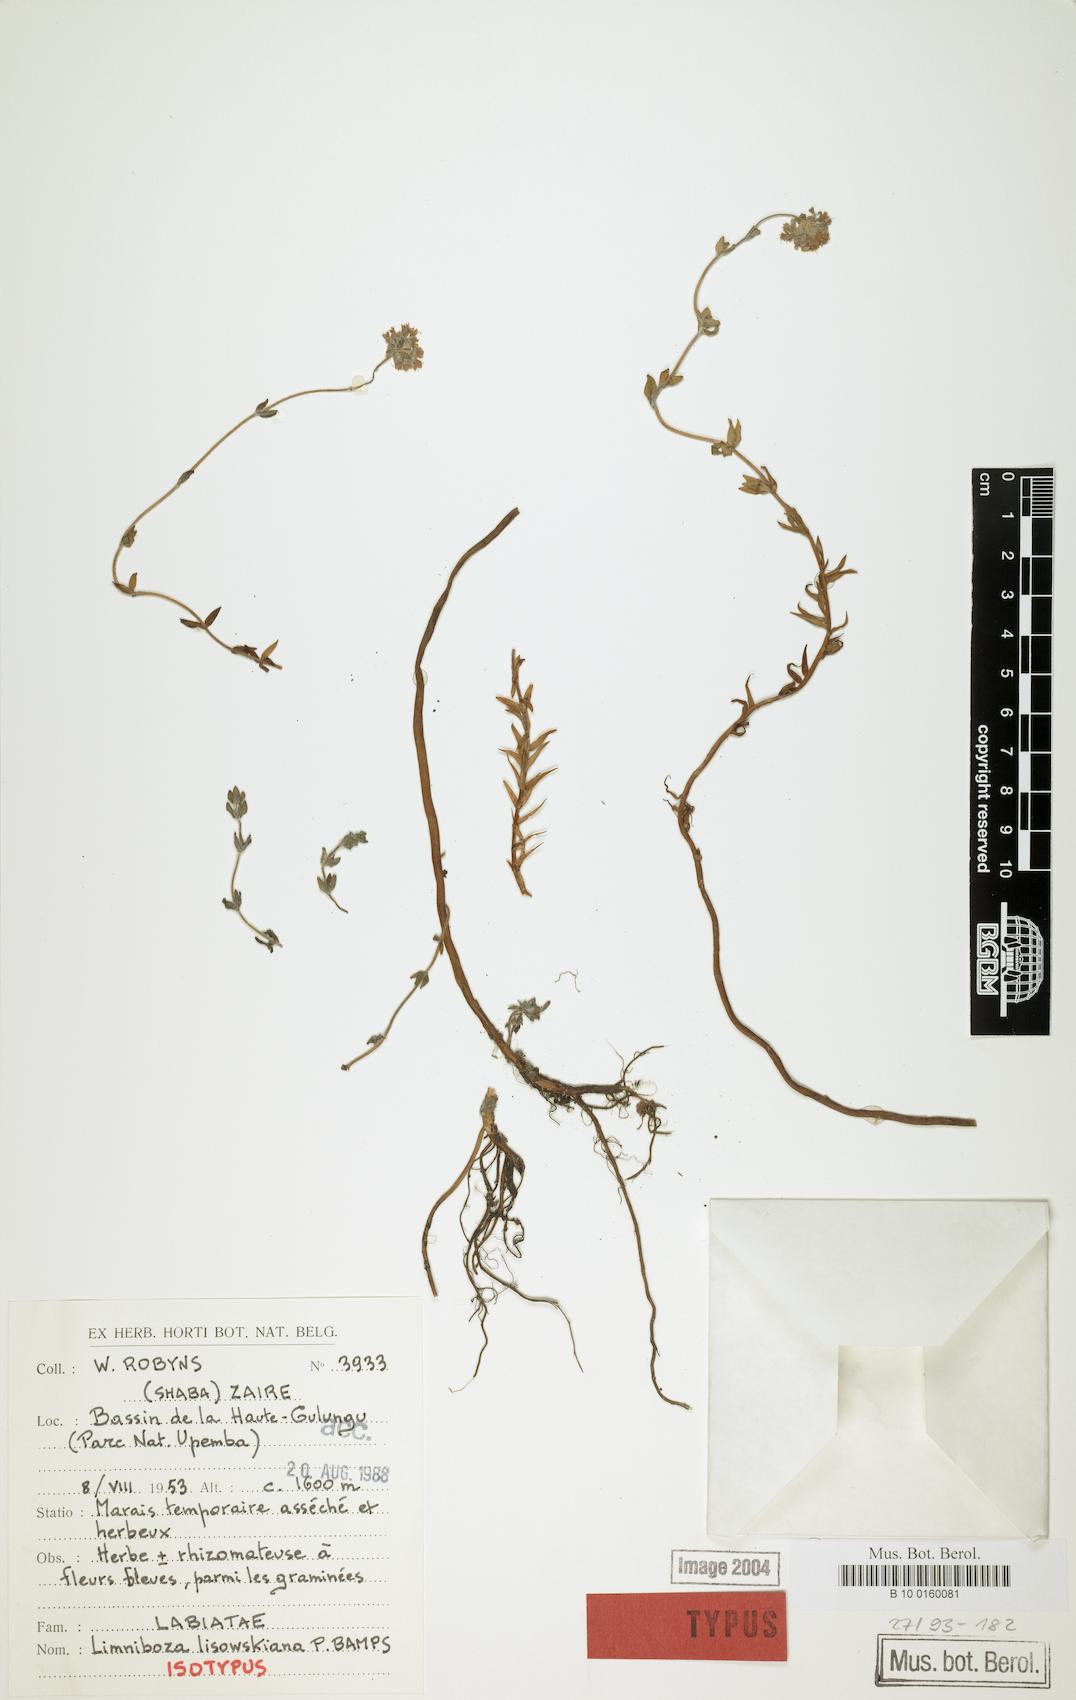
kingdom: Plantae
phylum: Tracheophyta
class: Magnoliopsida
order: Lamiales
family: Lamiaceae
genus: Platostoma
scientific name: Platostoma dilungense
